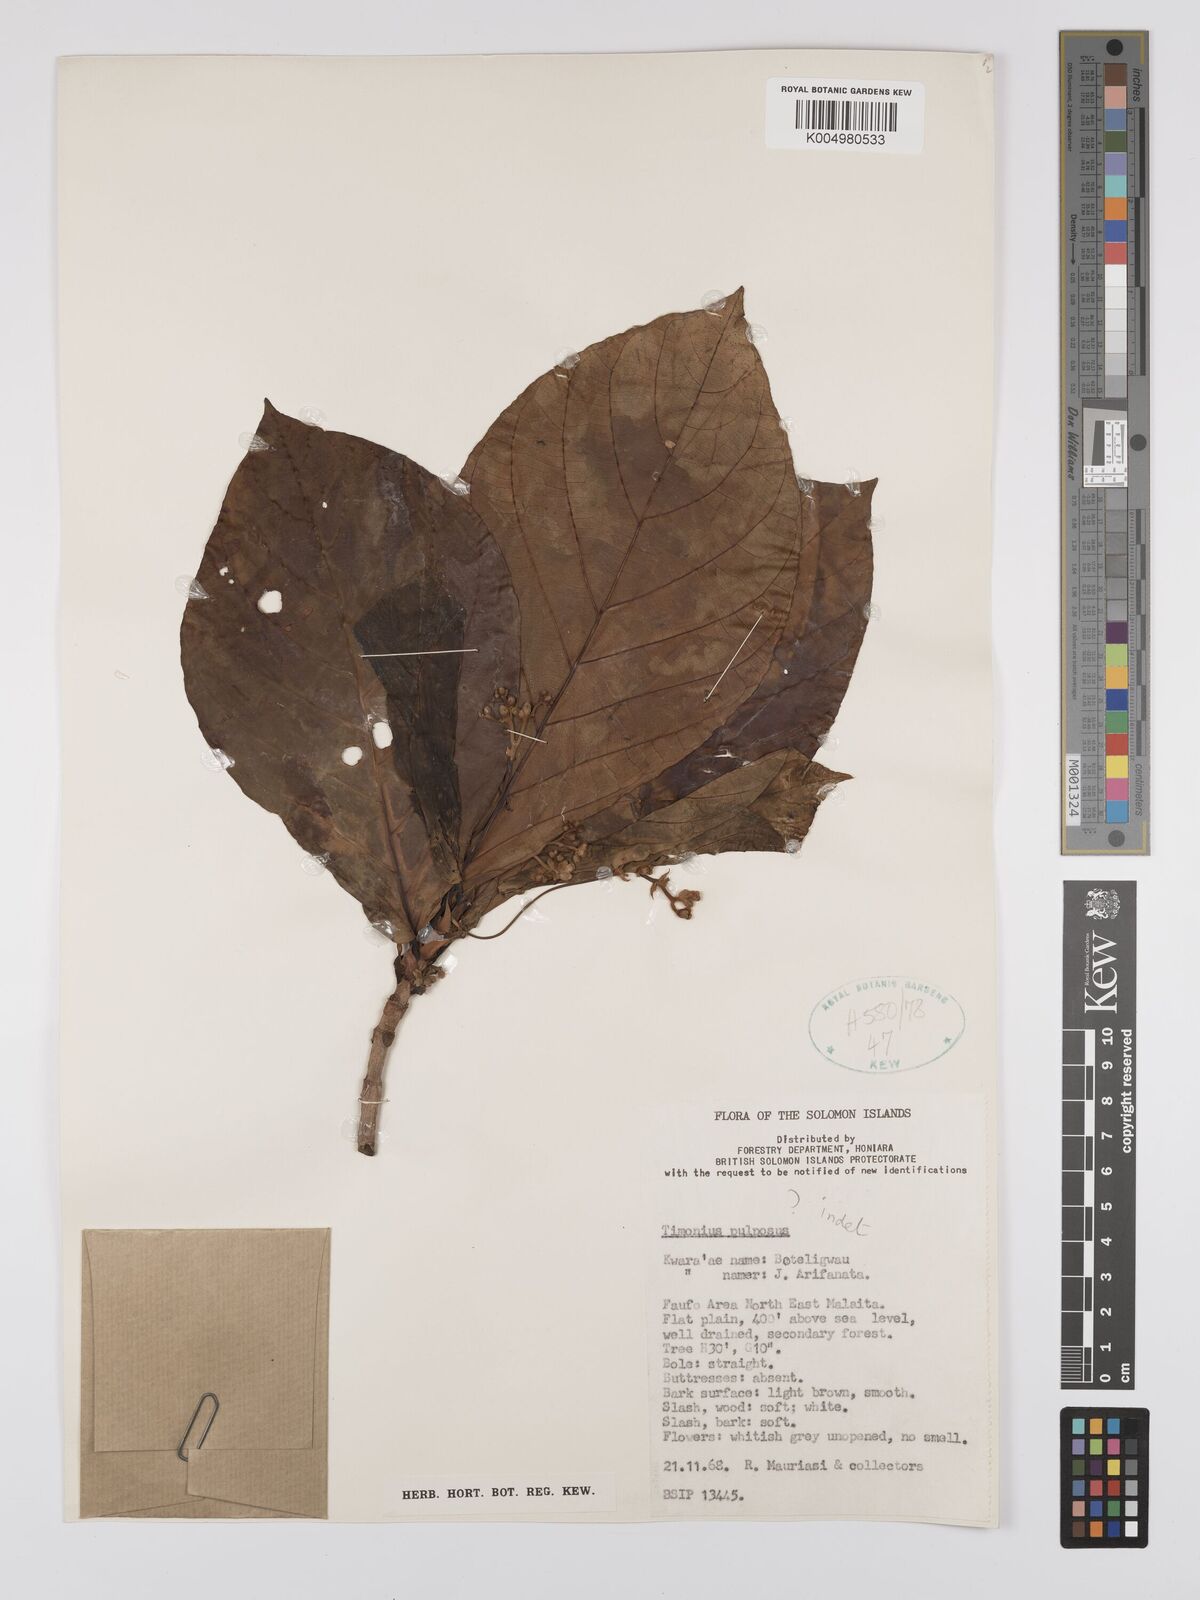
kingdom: Plantae
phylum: Tracheophyta
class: Magnoliopsida
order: Gentianales
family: Rubiaceae
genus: Timonius
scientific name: Timonius
